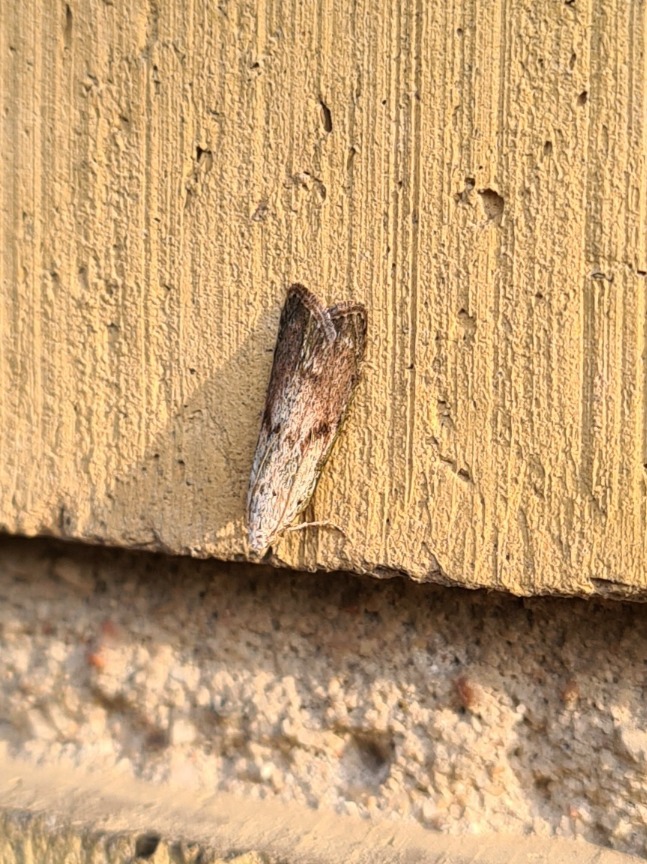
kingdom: Animalia
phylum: Arthropoda
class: Insecta
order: Lepidoptera
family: Pyralidae
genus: Aphomia
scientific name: Aphomia sociella
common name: Humlevoksmøl
